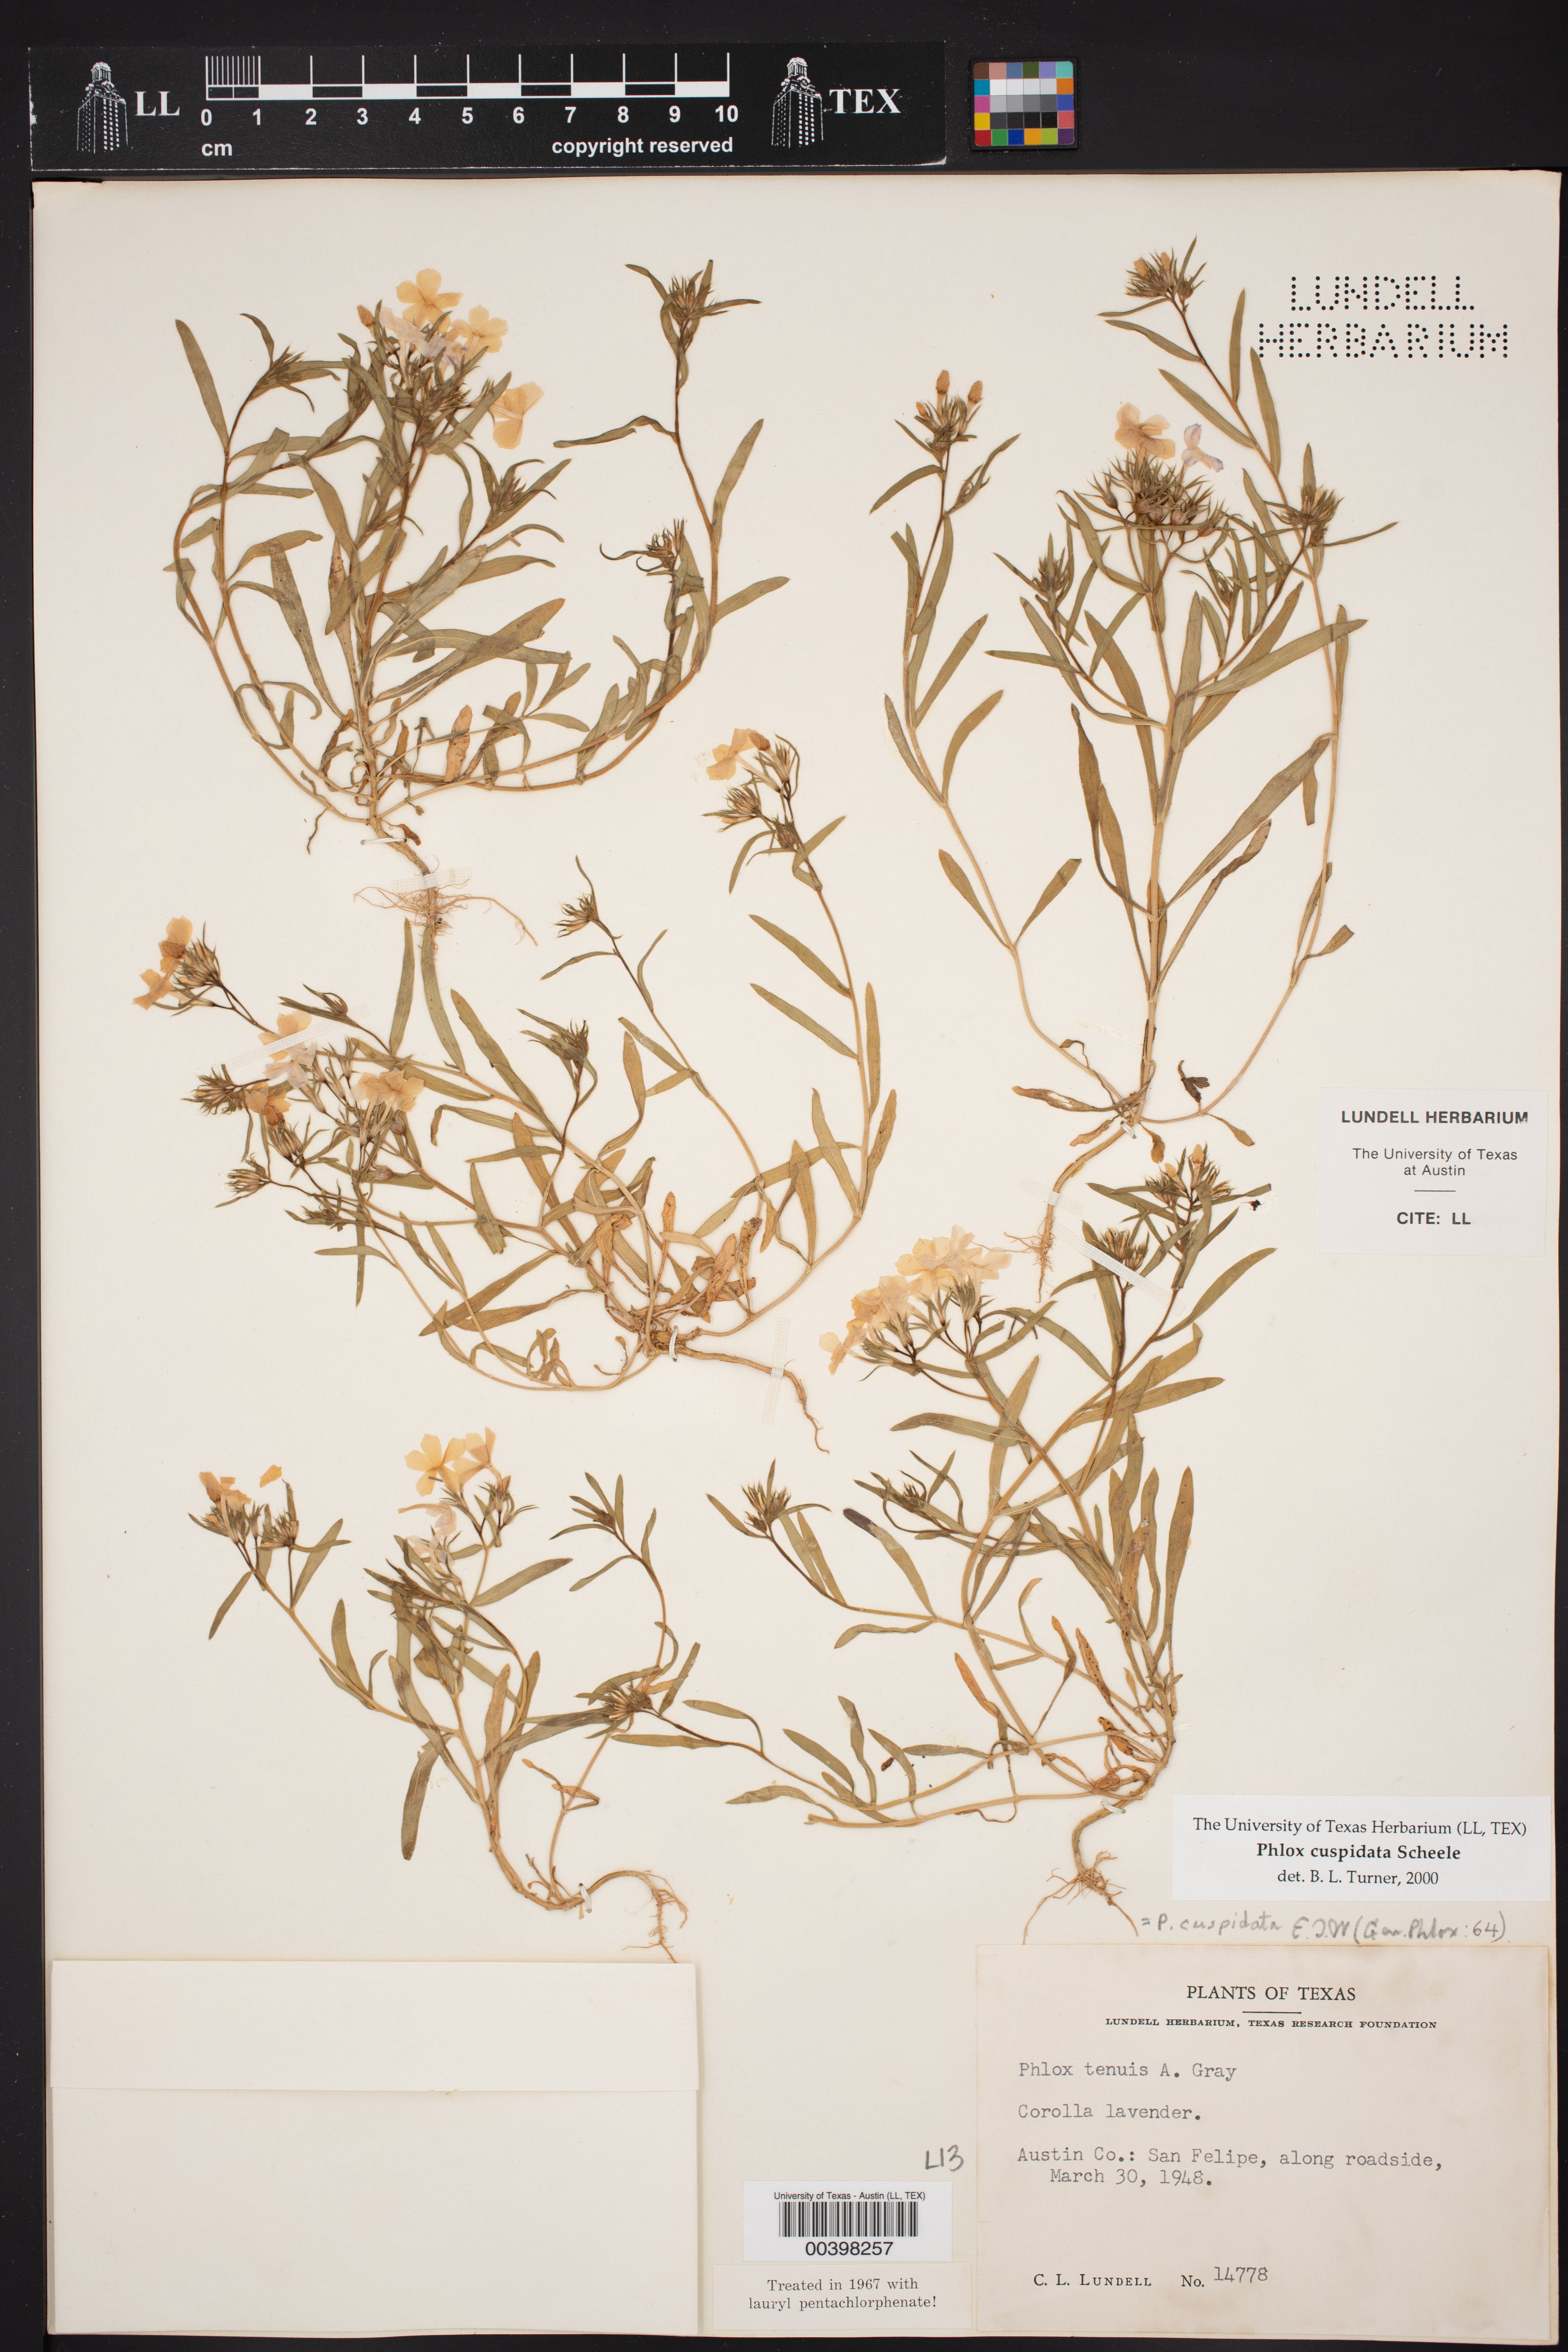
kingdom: Plantae
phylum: Tracheophyta
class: Magnoliopsida
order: Ericales
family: Polemoniaceae
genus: Phlox
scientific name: Phlox cuspidata
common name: Pointed phlox
